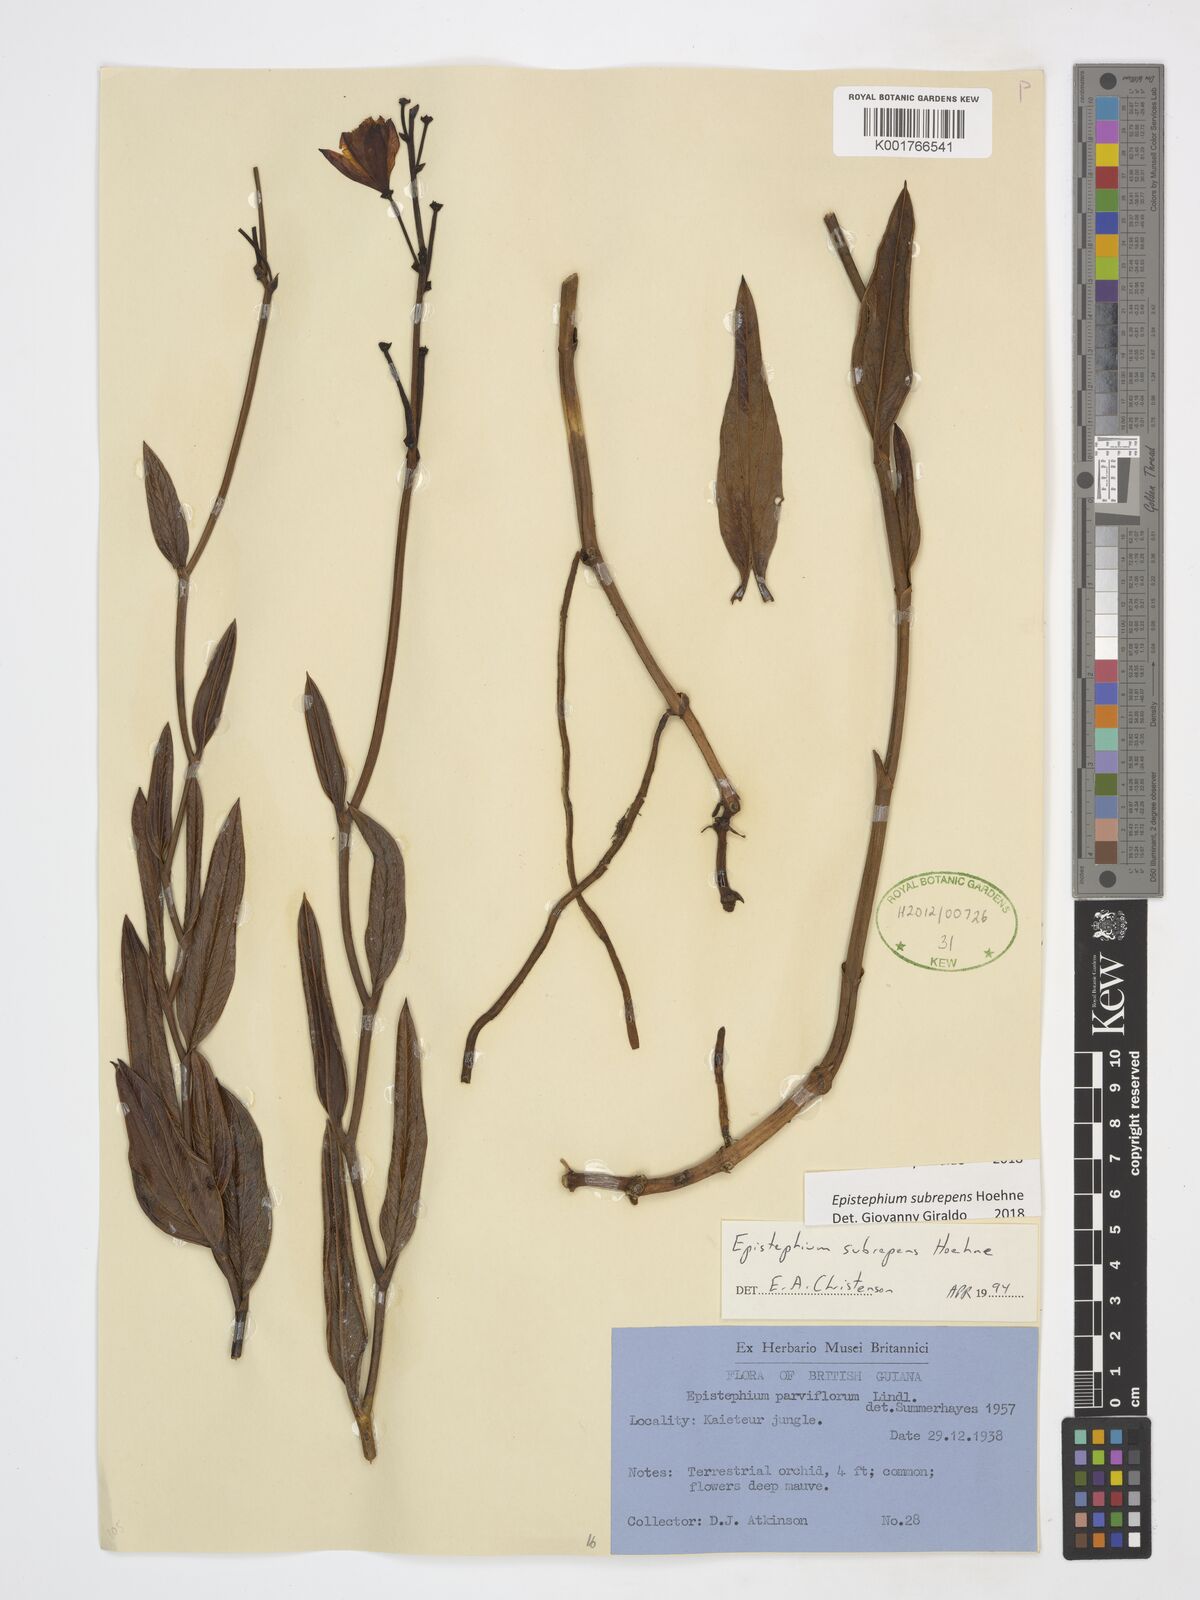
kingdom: Plantae
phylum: Tracheophyta
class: Liliopsida
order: Asparagales
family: Orchidaceae
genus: Epistephium
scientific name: Epistephium subrepens
